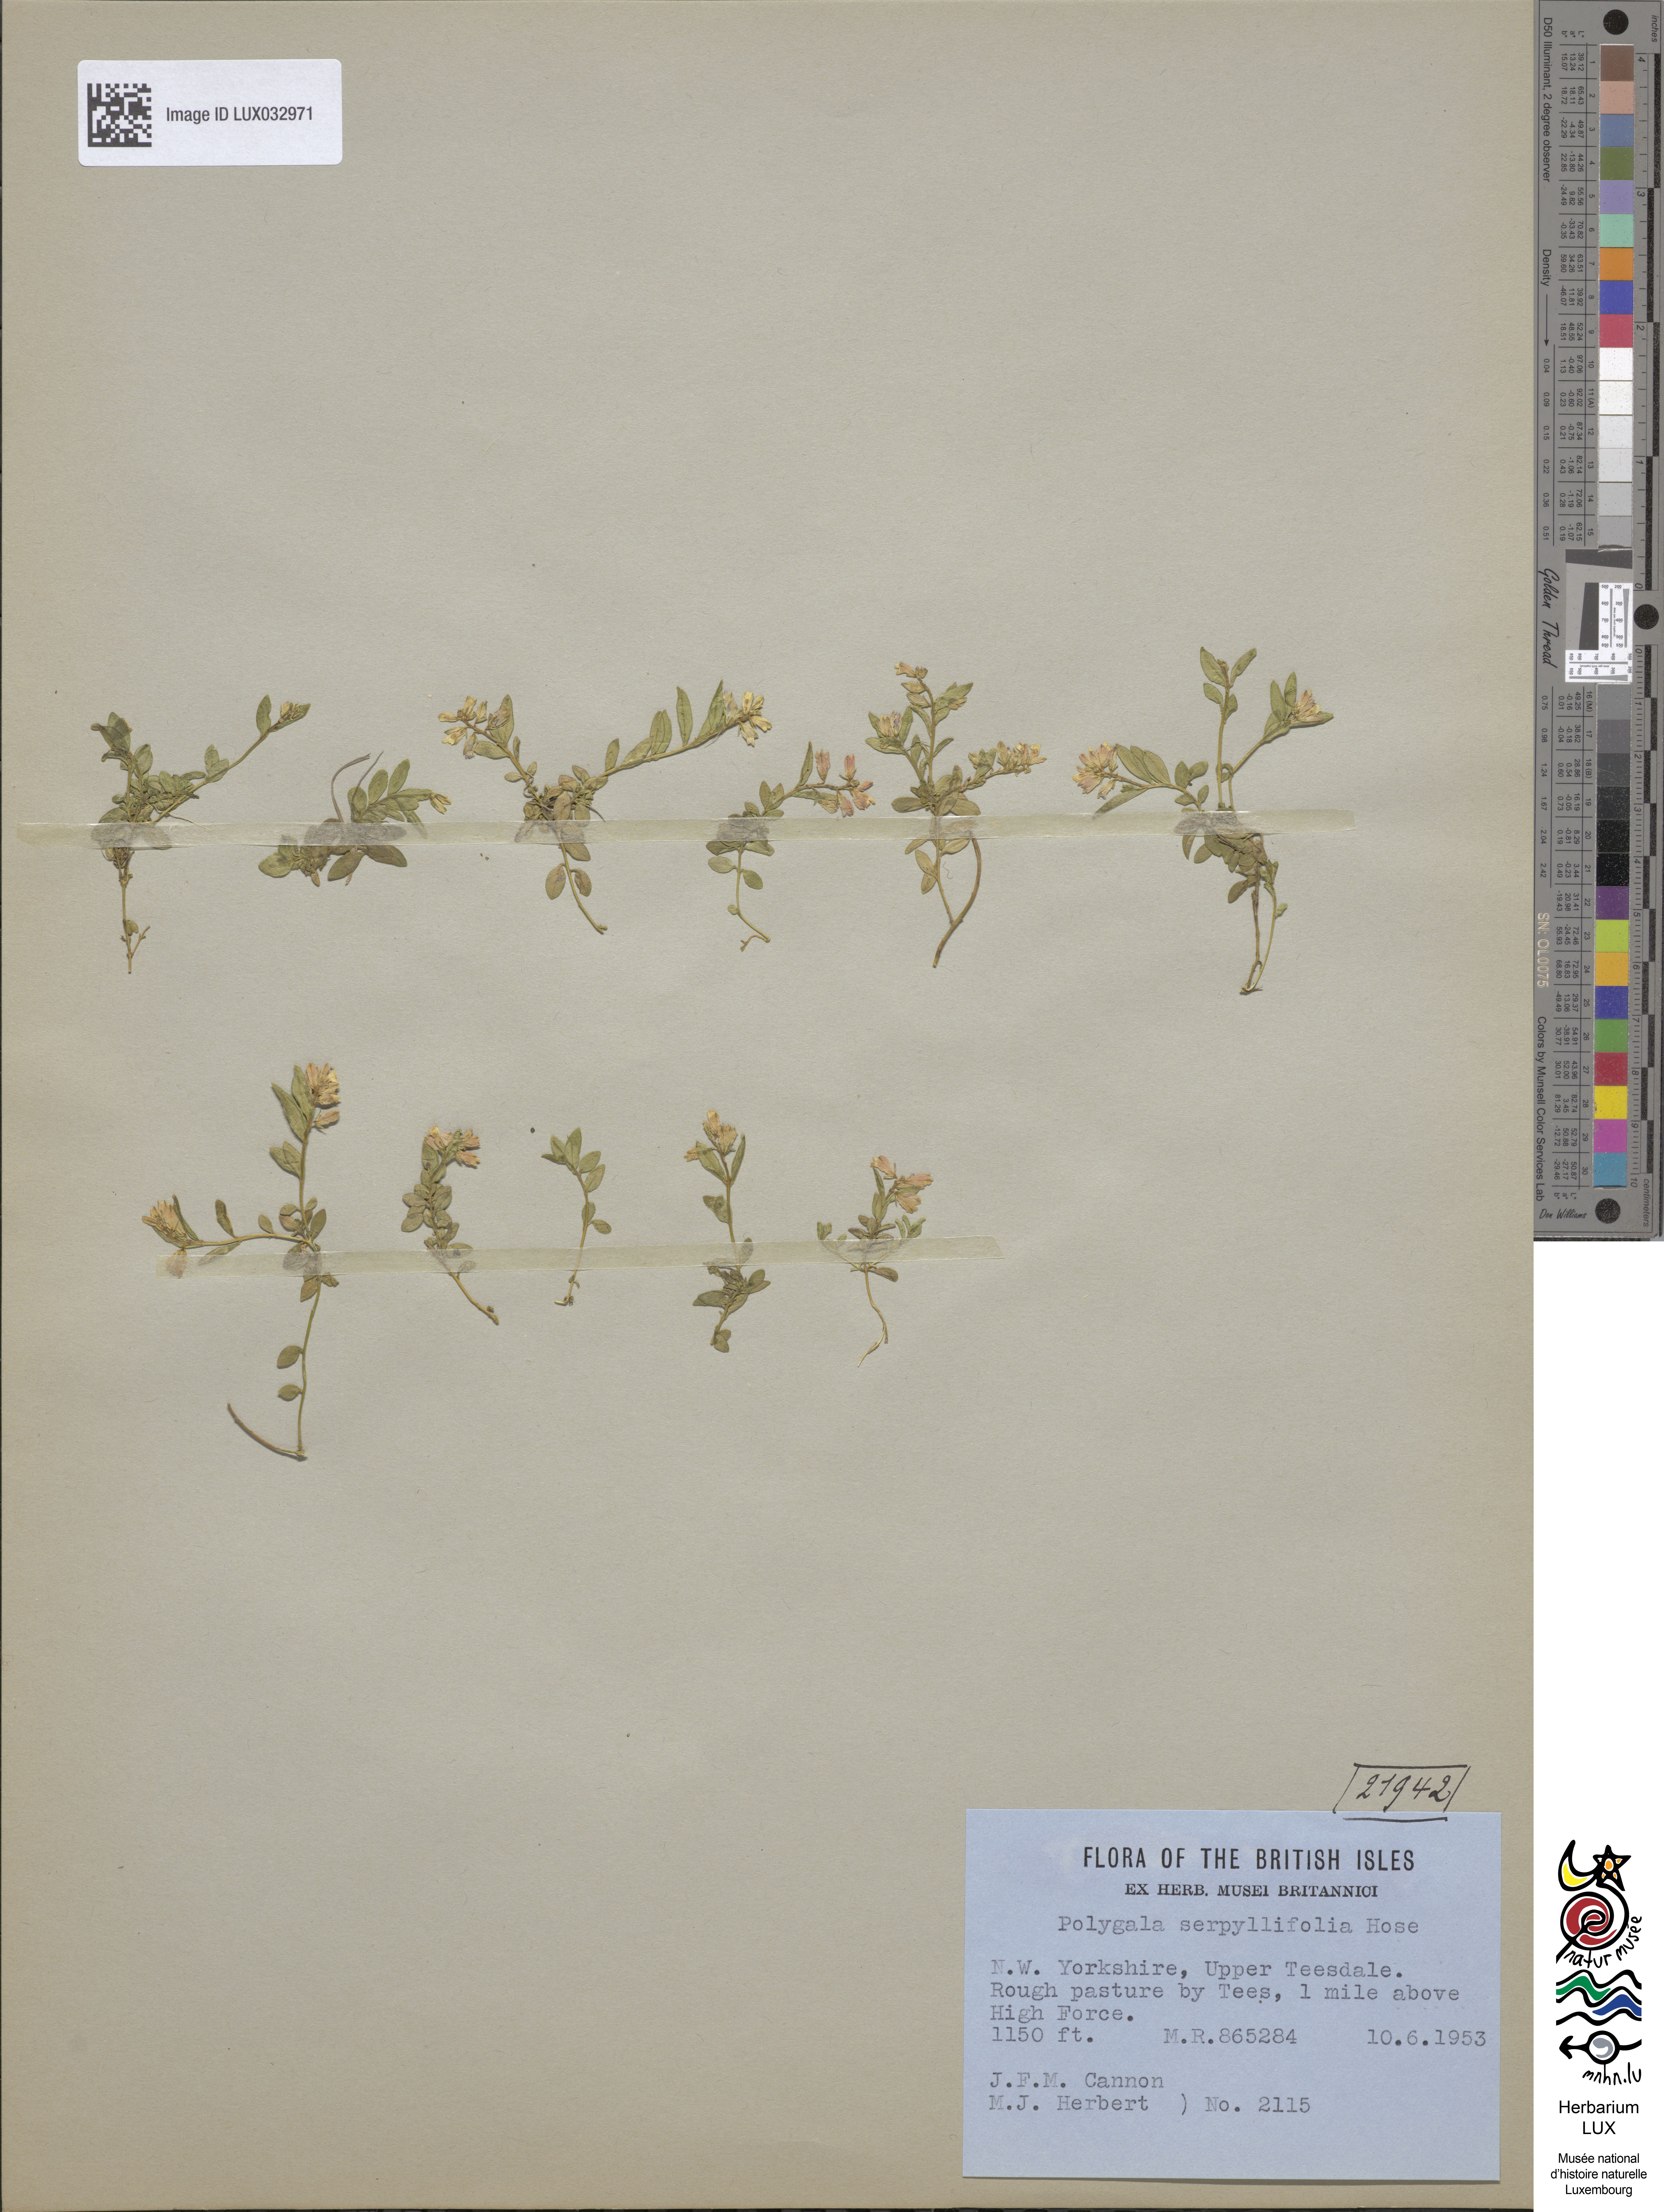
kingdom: Plantae
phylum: Tracheophyta
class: Magnoliopsida
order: Fabales
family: Polygalaceae
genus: Polygala
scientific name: Polygala serpyllifolia
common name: Heath milkwort
